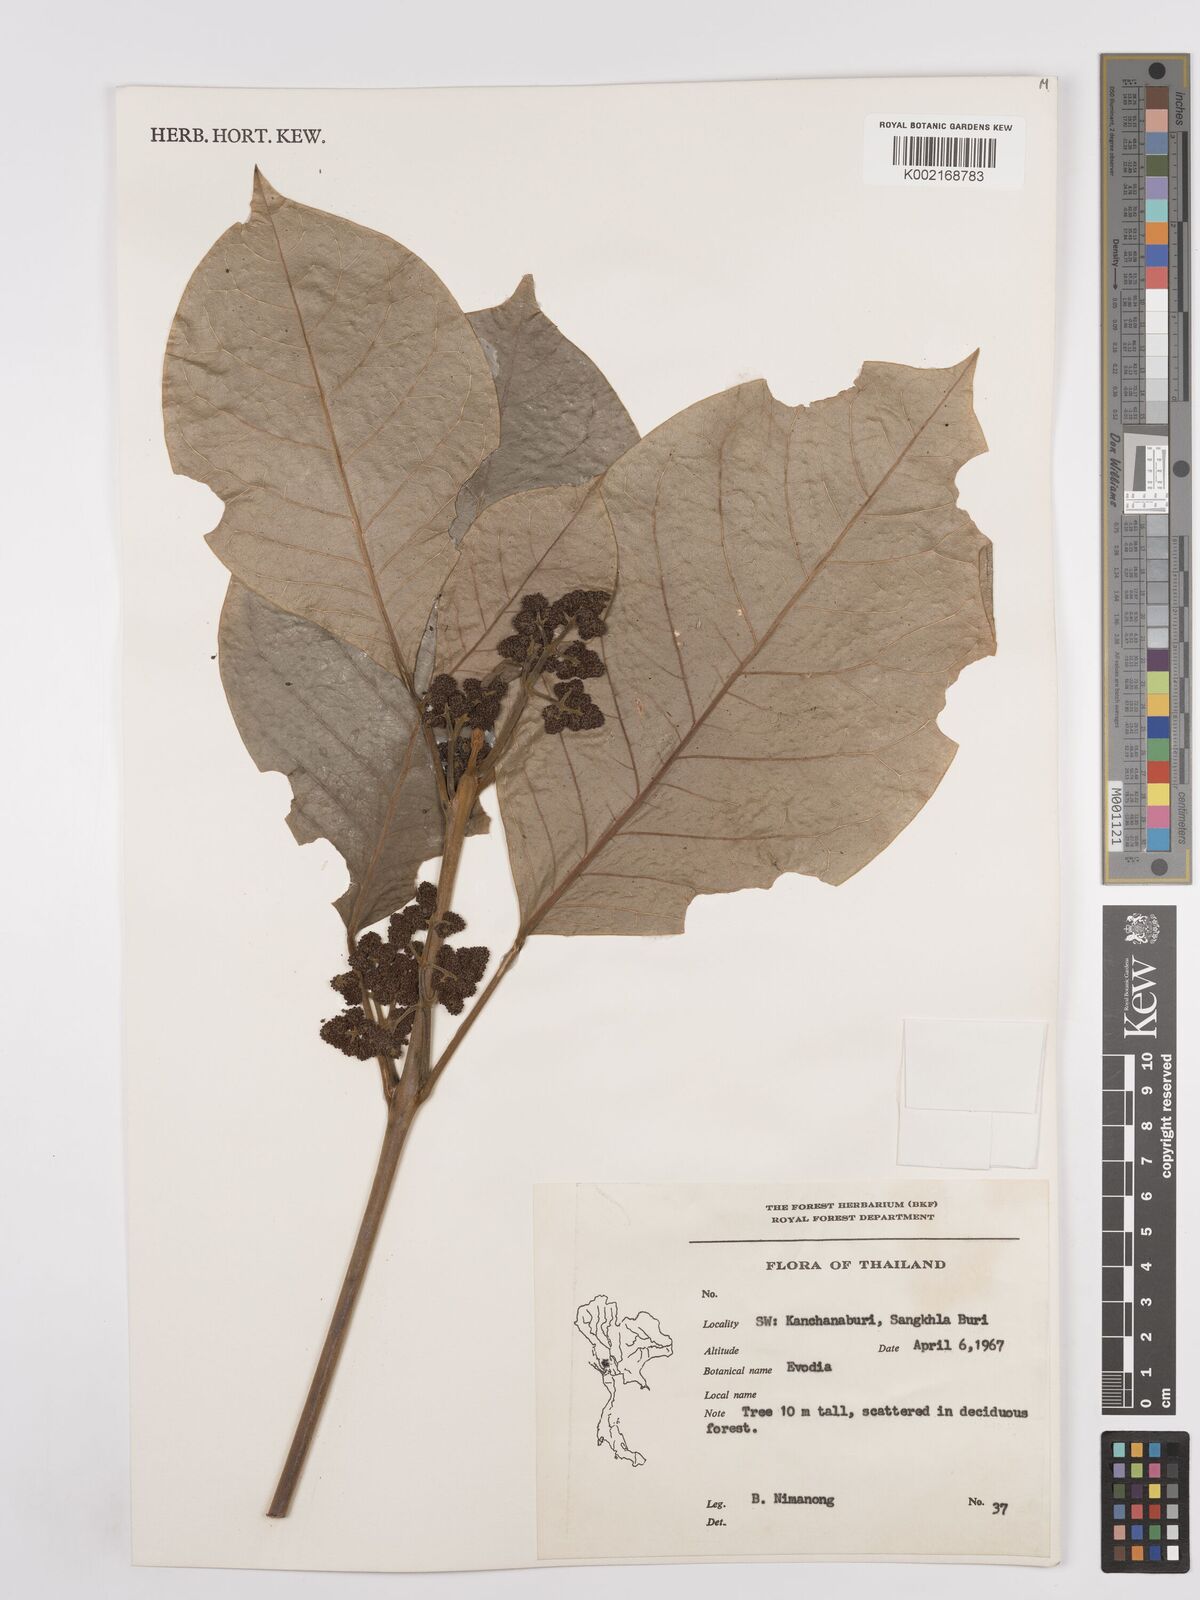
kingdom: Plantae
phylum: Tracheophyta
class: Magnoliopsida
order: Sapindales
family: Rutaceae
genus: Euodia
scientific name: Euodia
